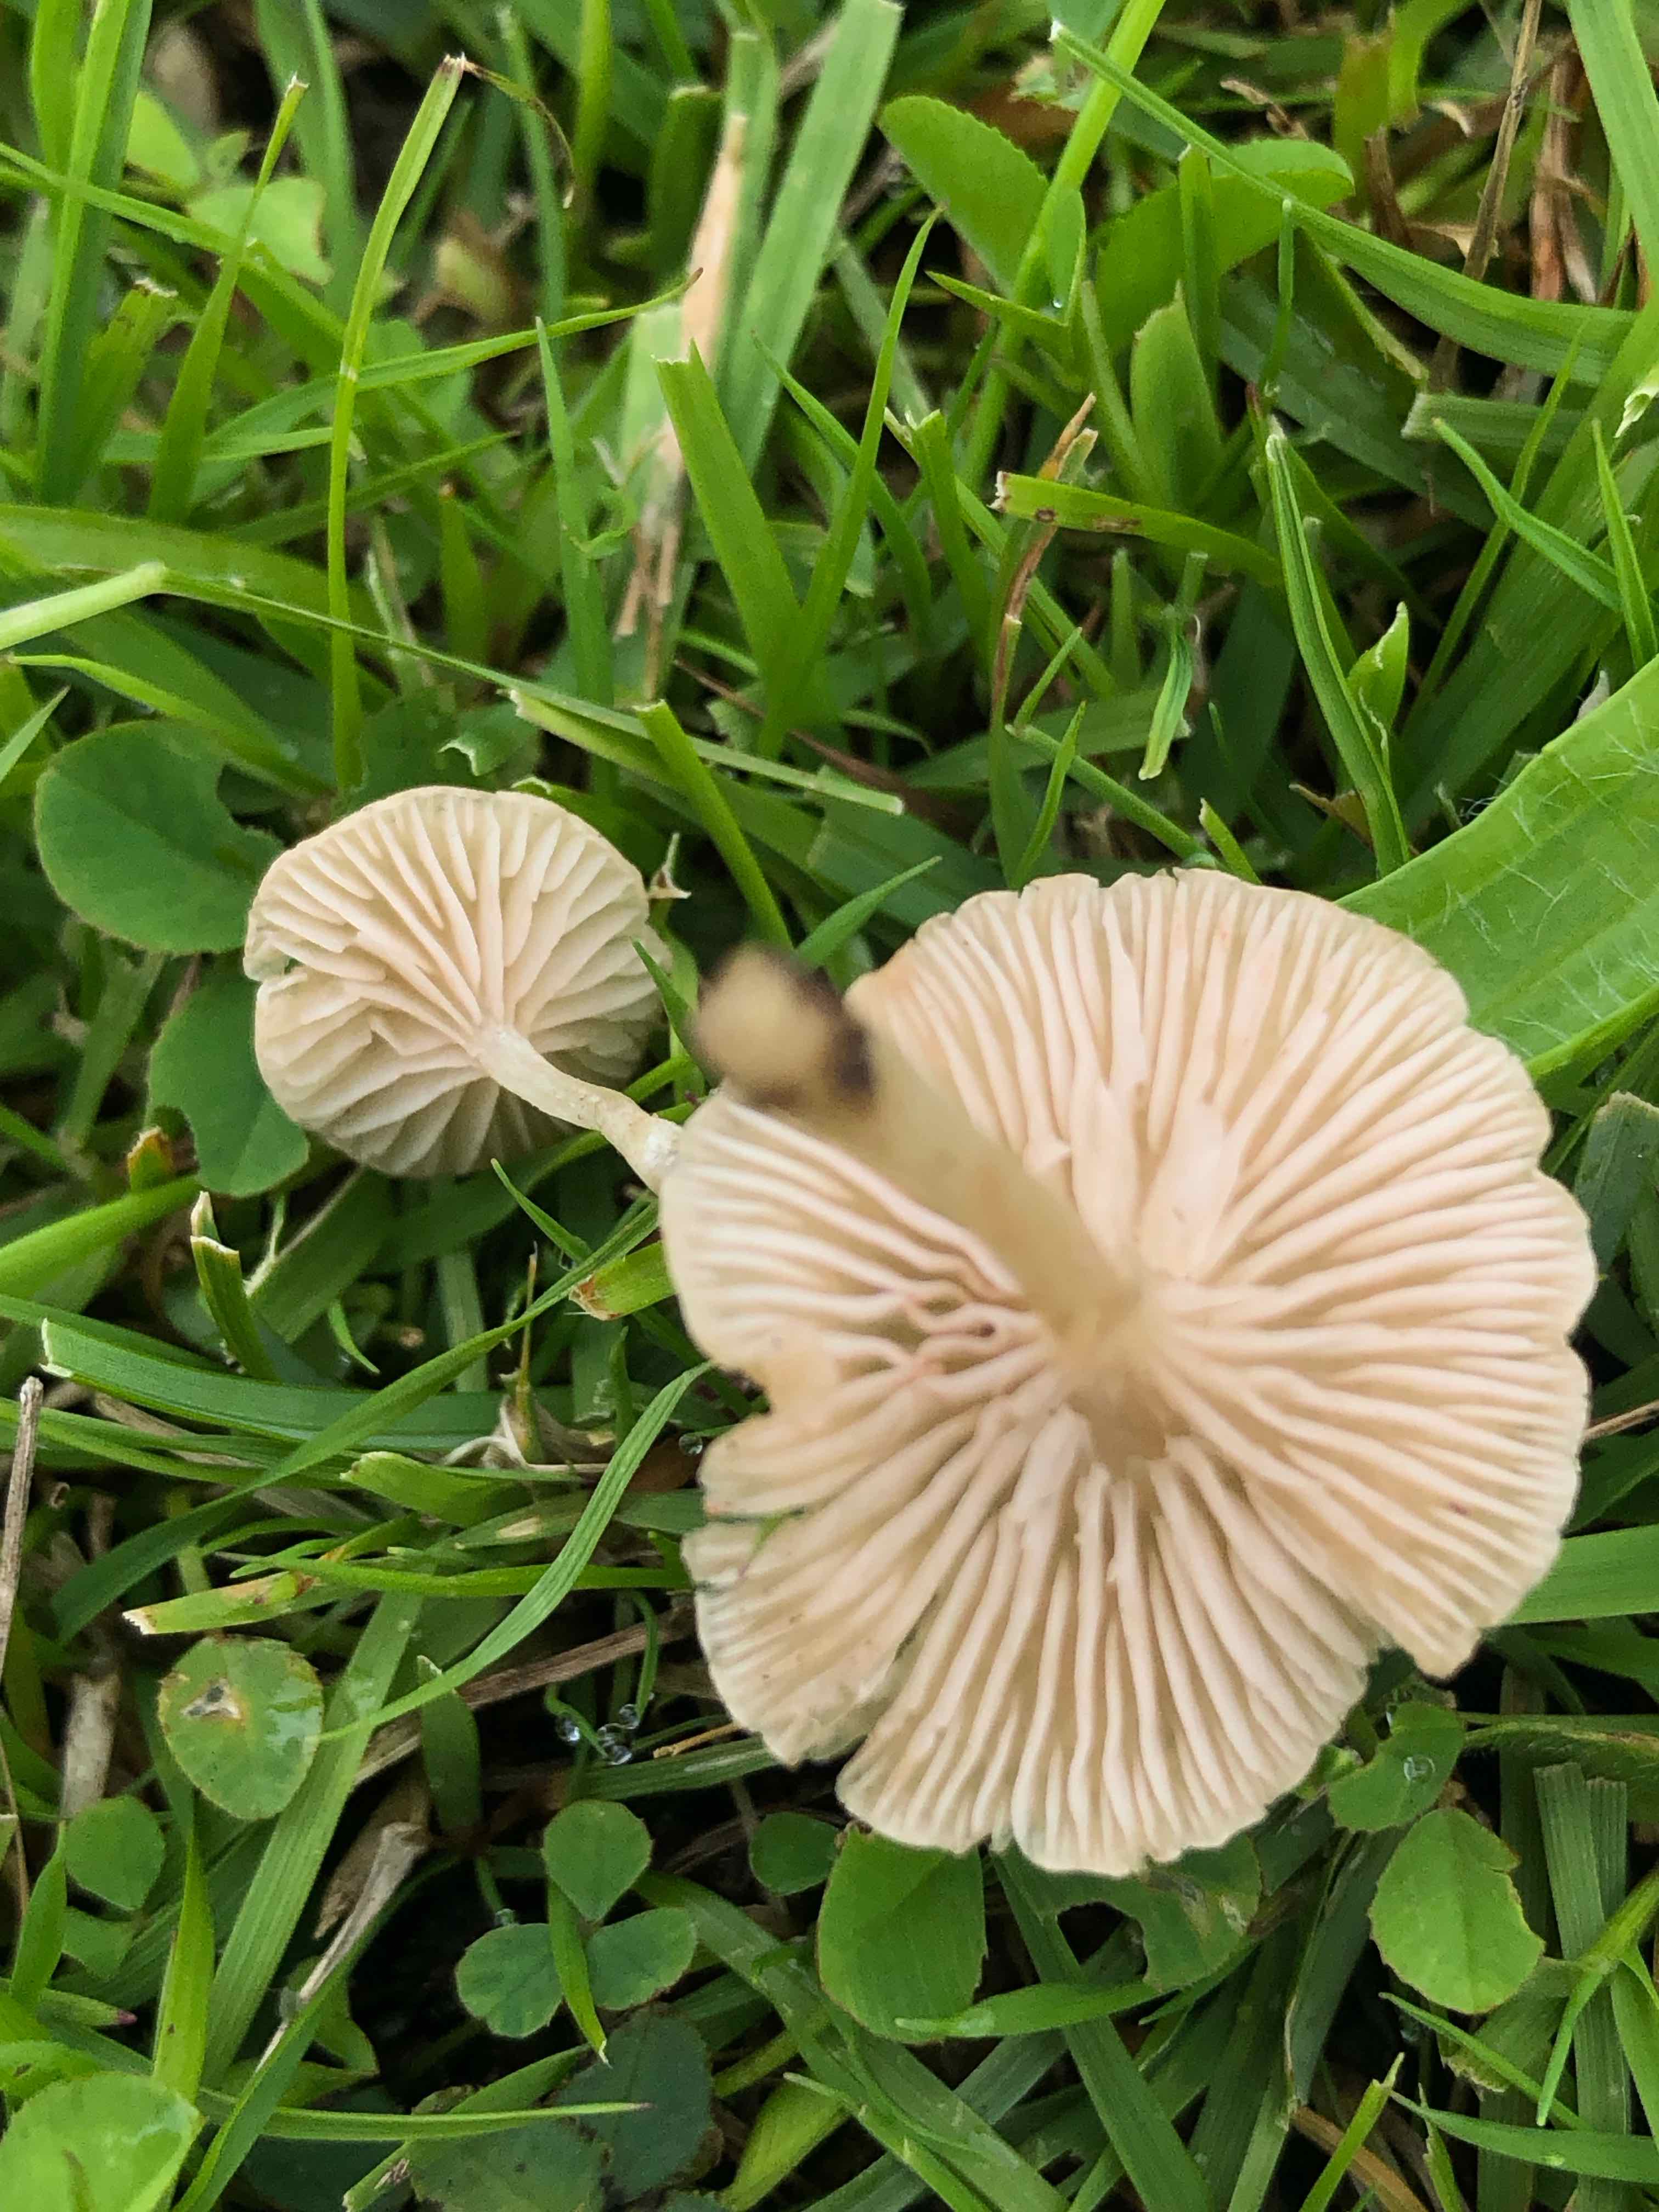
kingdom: Fungi
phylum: Basidiomycota
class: Agaricomycetes
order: Agaricales
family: Entolomataceae
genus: Entoloma
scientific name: Entoloma neglectum
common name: bleg rødblad
